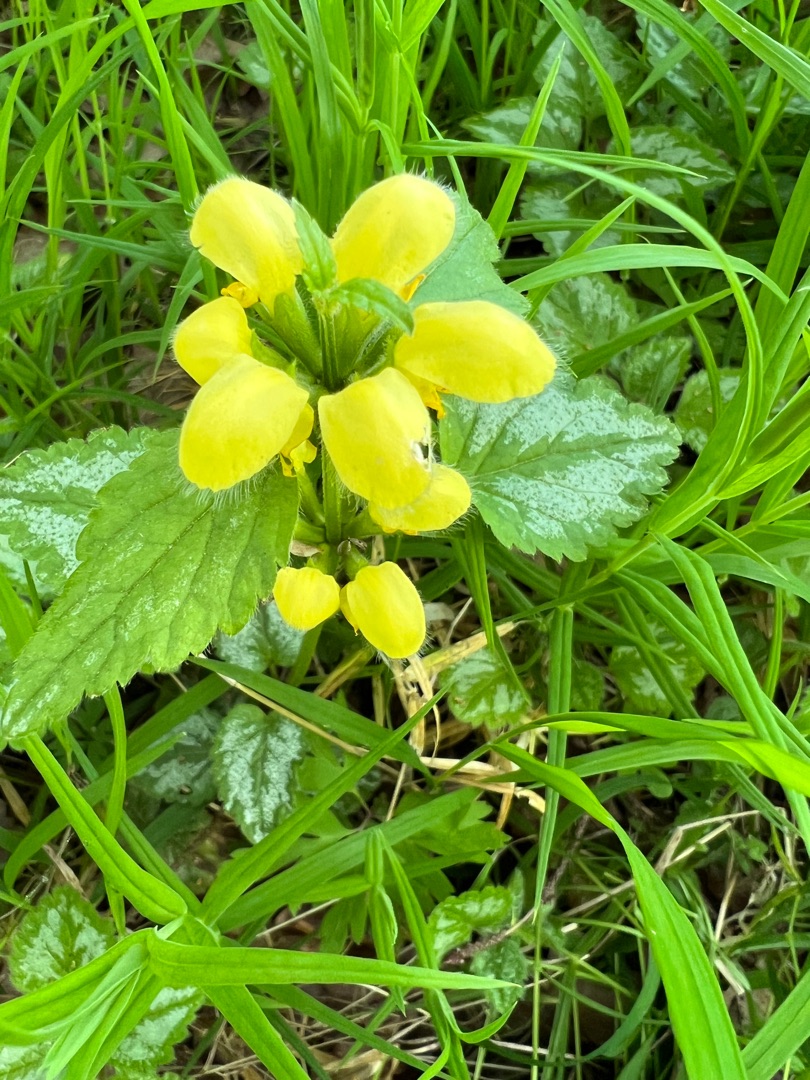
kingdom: Plantae
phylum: Tracheophyta
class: Magnoliopsida
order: Lamiales
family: Lamiaceae
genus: Lamium
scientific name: Lamium galeobdolon
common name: Have-guldnælde
